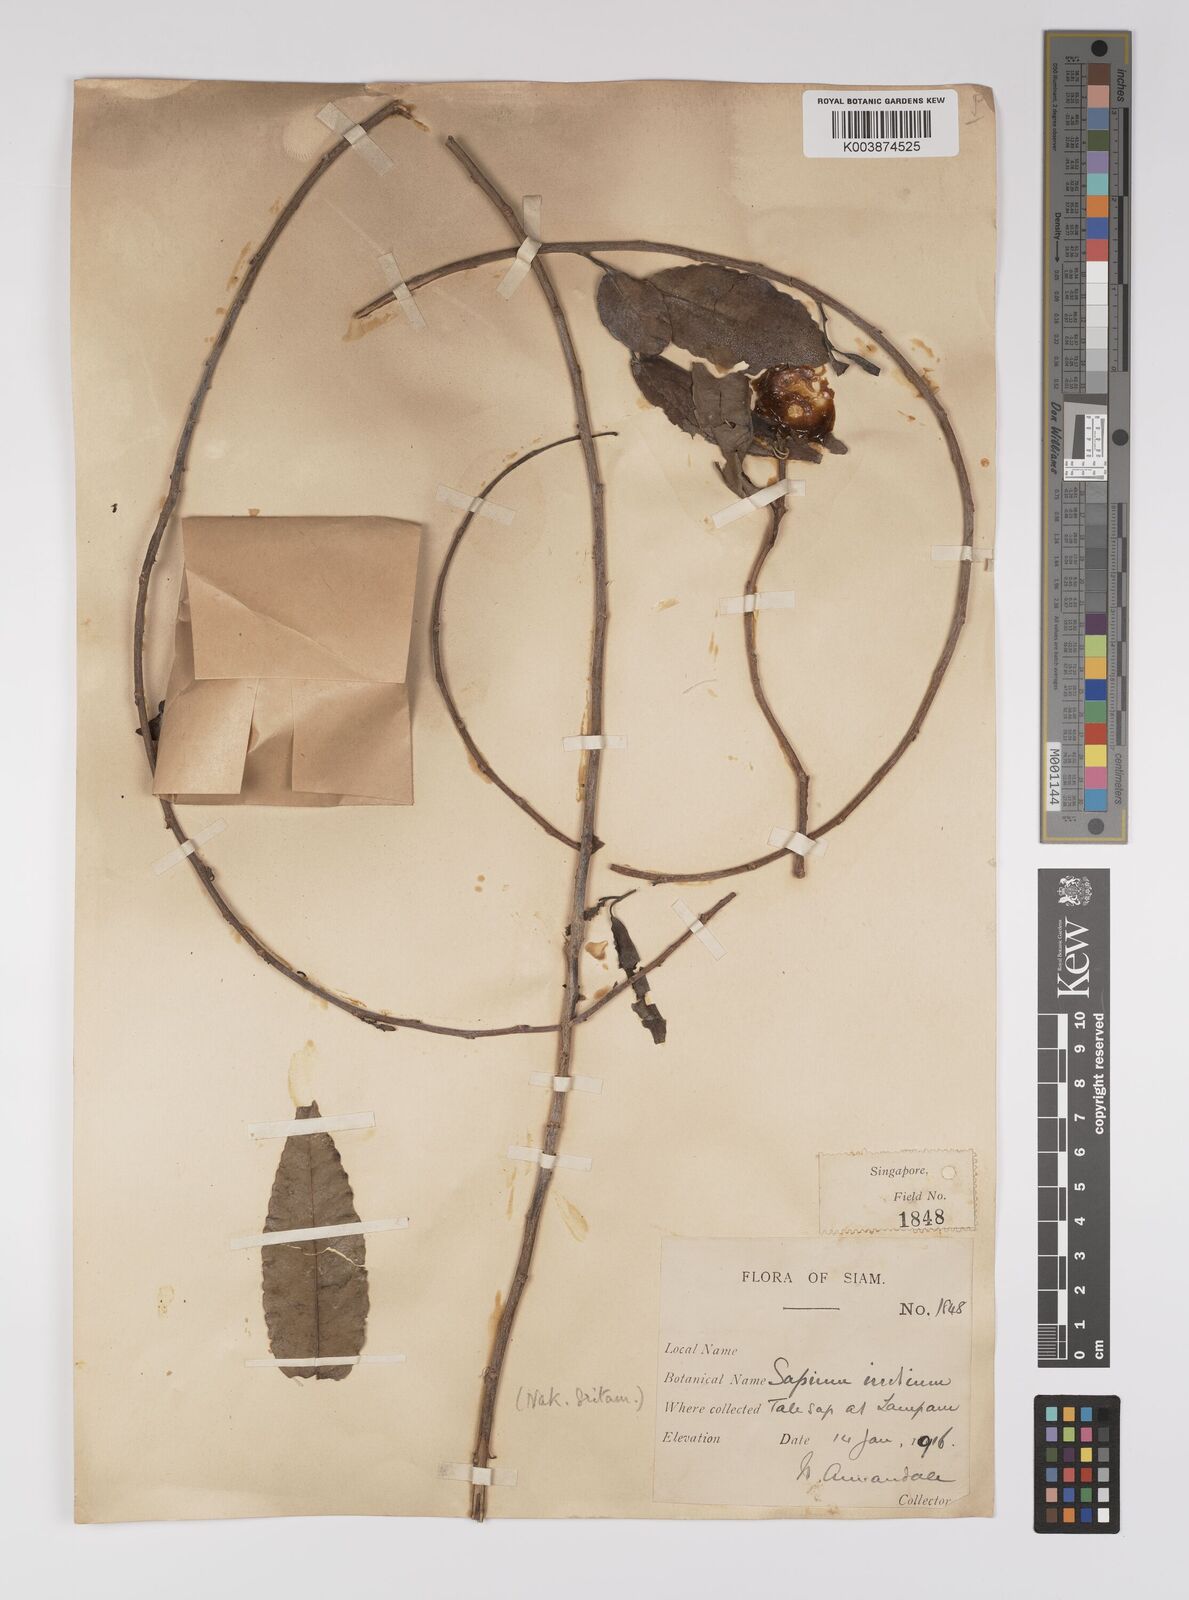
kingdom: Plantae
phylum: Tracheophyta
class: Magnoliopsida
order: Malpighiales
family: Euphorbiaceae
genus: Shirakiopsis
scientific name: Shirakiopsis indica
